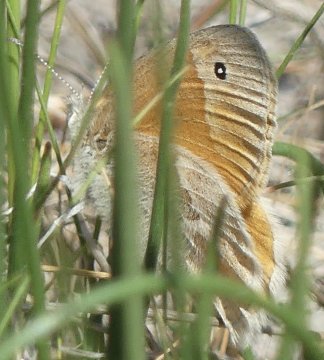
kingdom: Animalia
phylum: Arthropoda
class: Insecta
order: Lepidoptera
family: Nymphalidae
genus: Coenonympha
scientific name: Coenonympha tullia
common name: Large Heath
